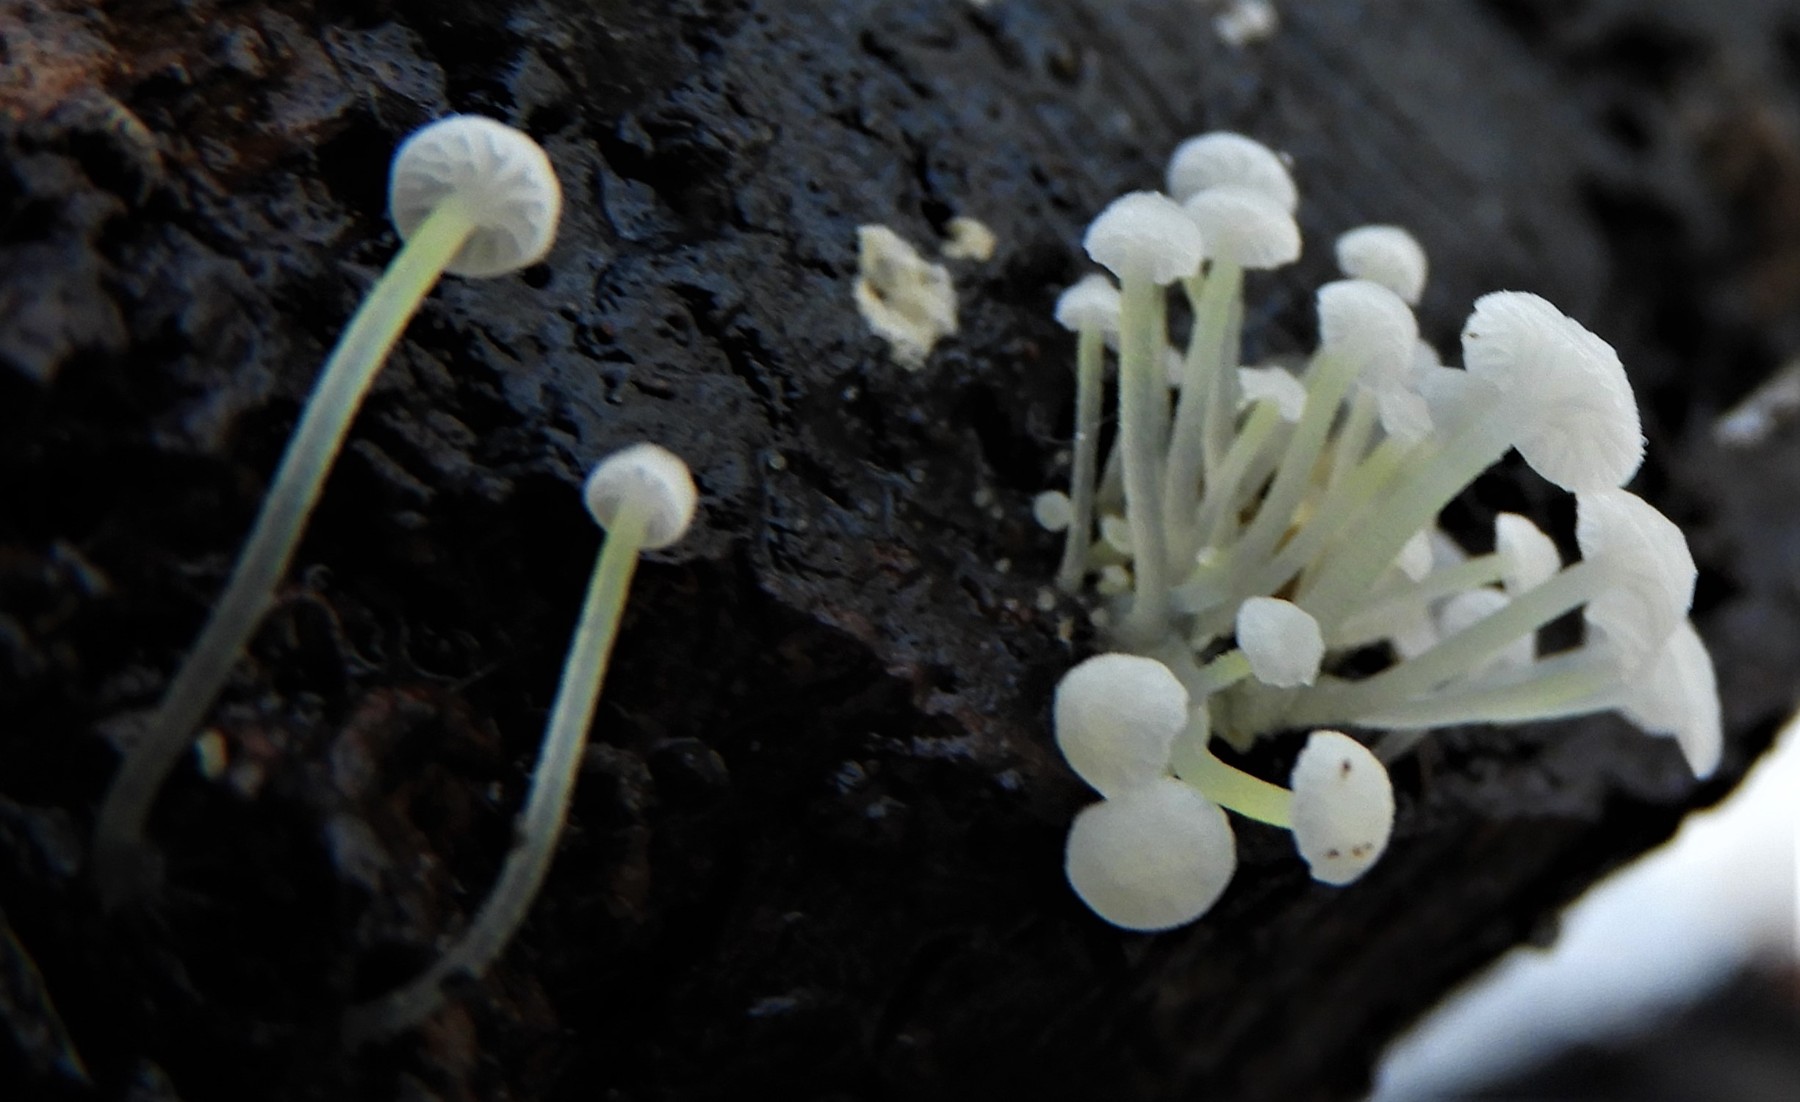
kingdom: Fungi
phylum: Basidiomycota
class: Agaricomycetes
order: Agaricales
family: Porotheleaceae
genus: Phloeomana
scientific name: Phloeomana speirea
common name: kvist-huesvamp
